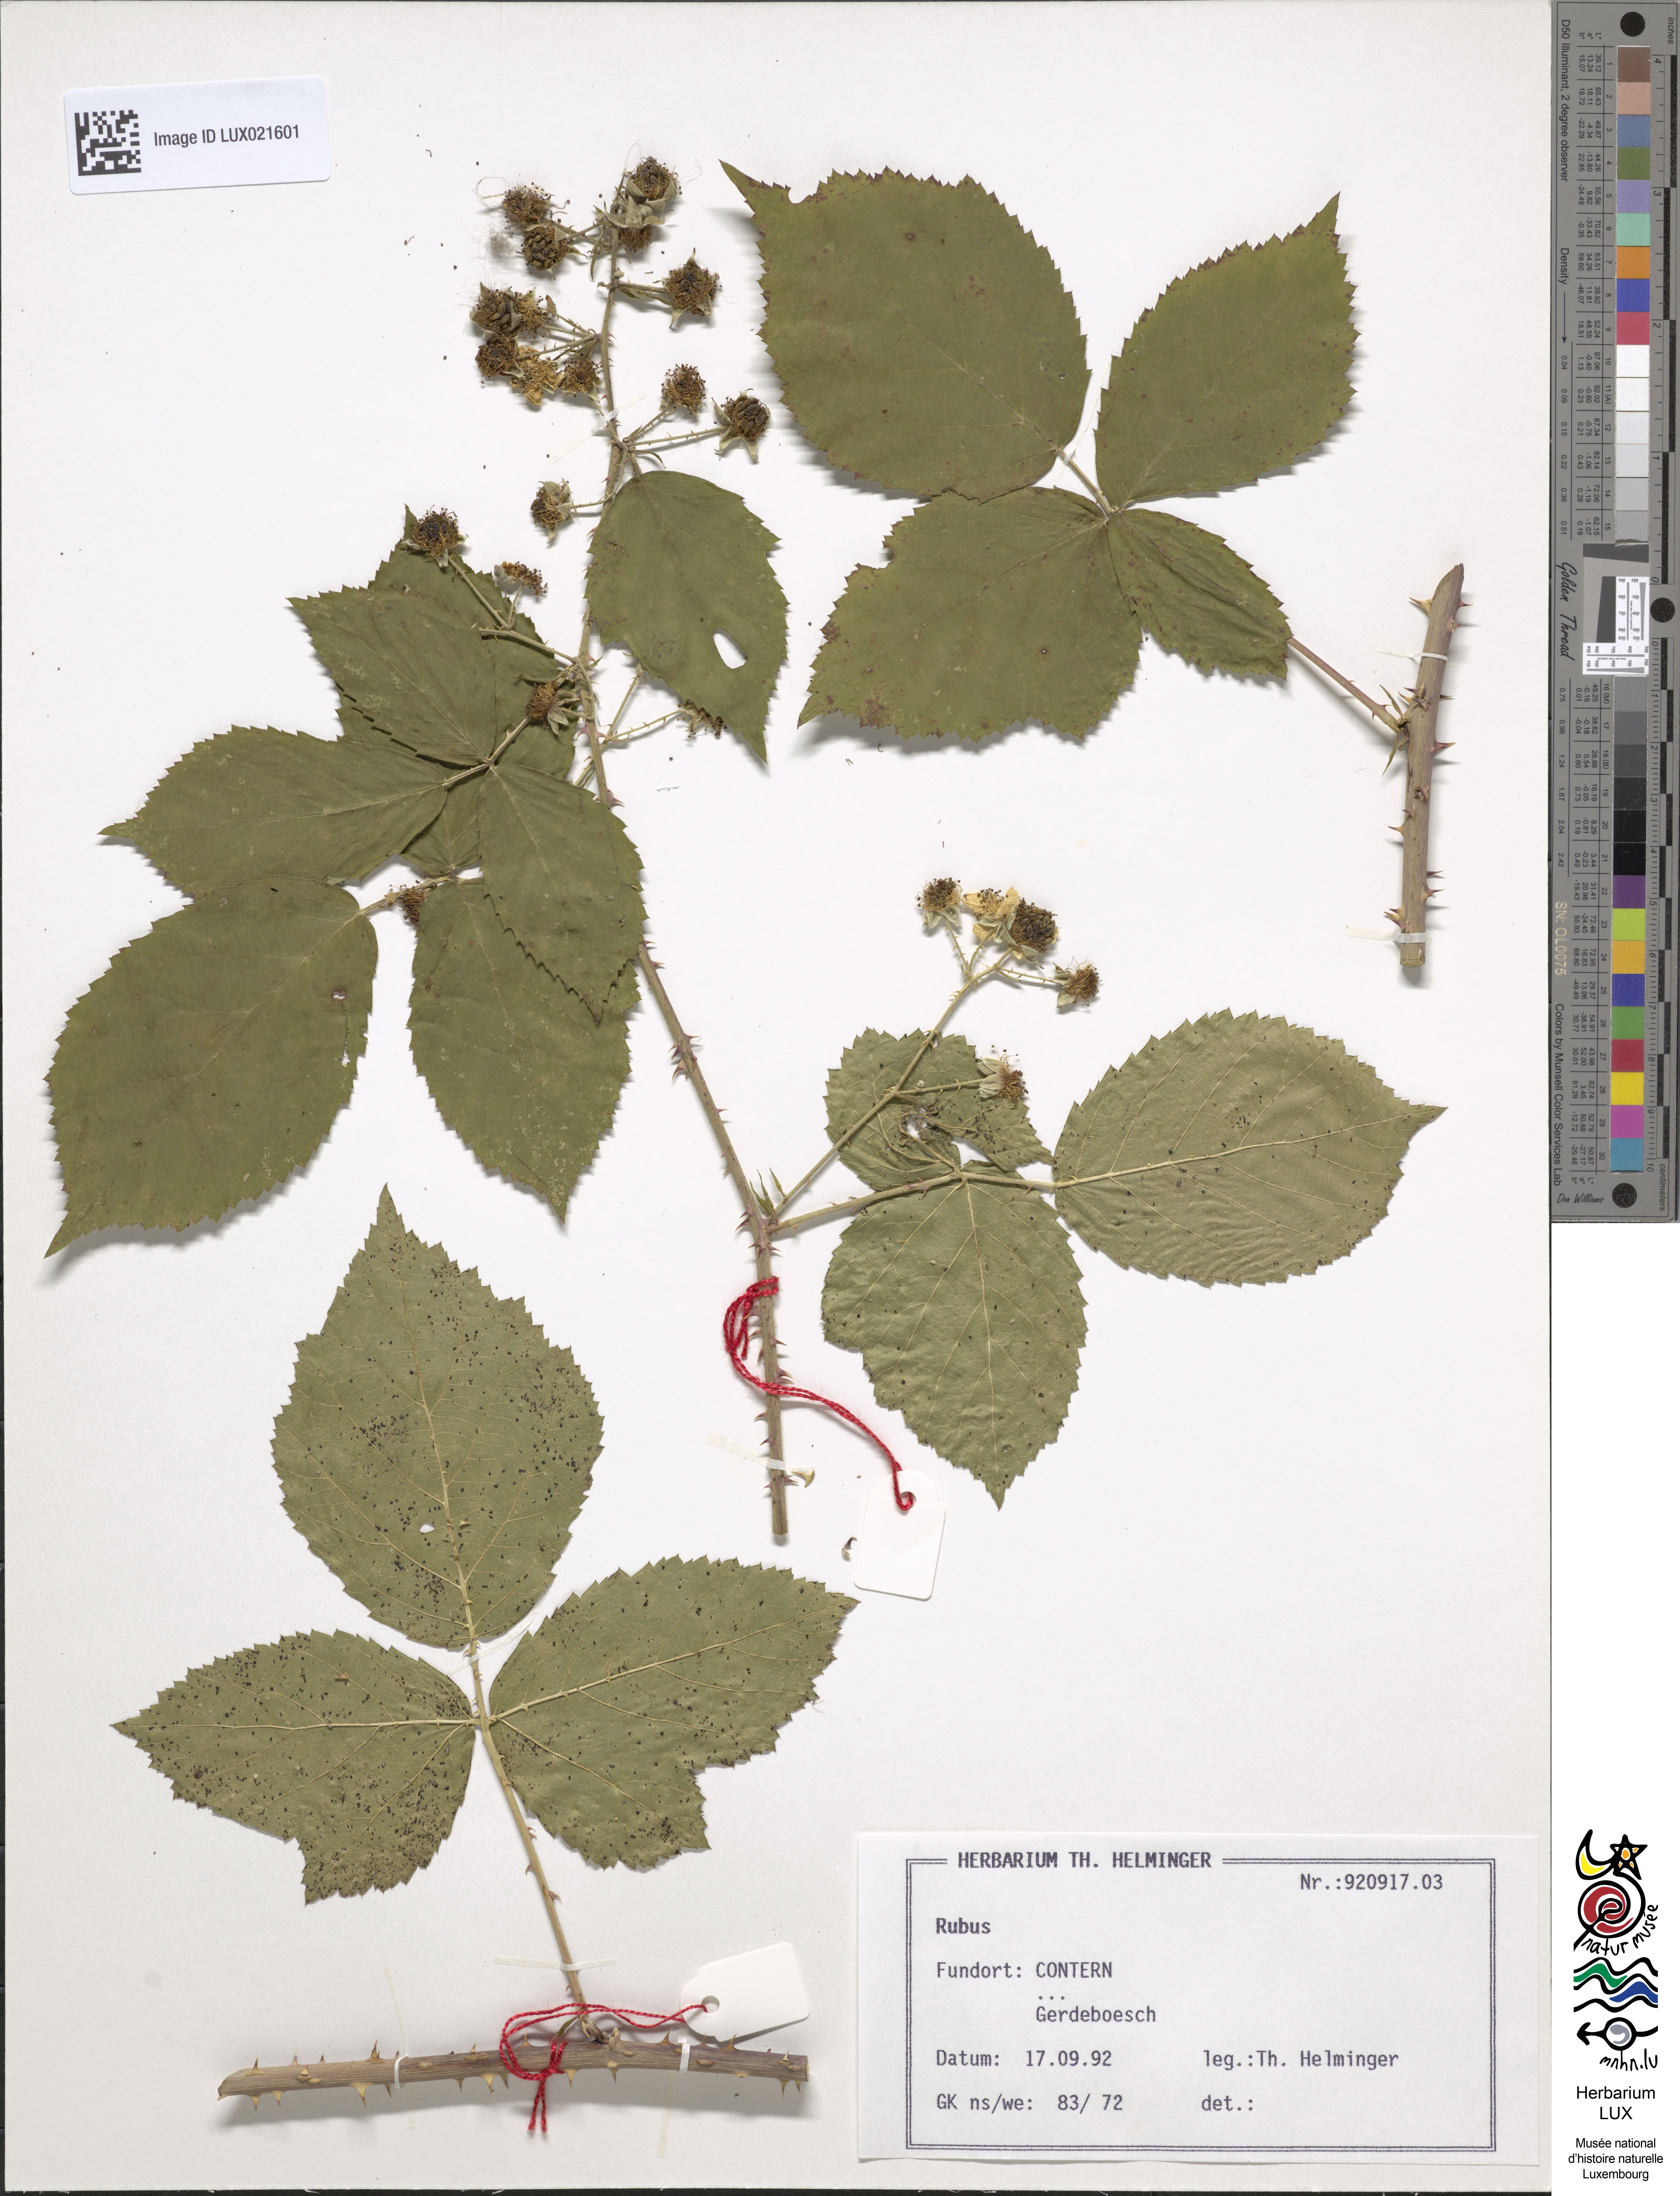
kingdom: Plantae
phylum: Tracheophyta
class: Magnoliopsida
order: Rosales
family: Rosaceae
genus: Rubus
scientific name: Rubus
